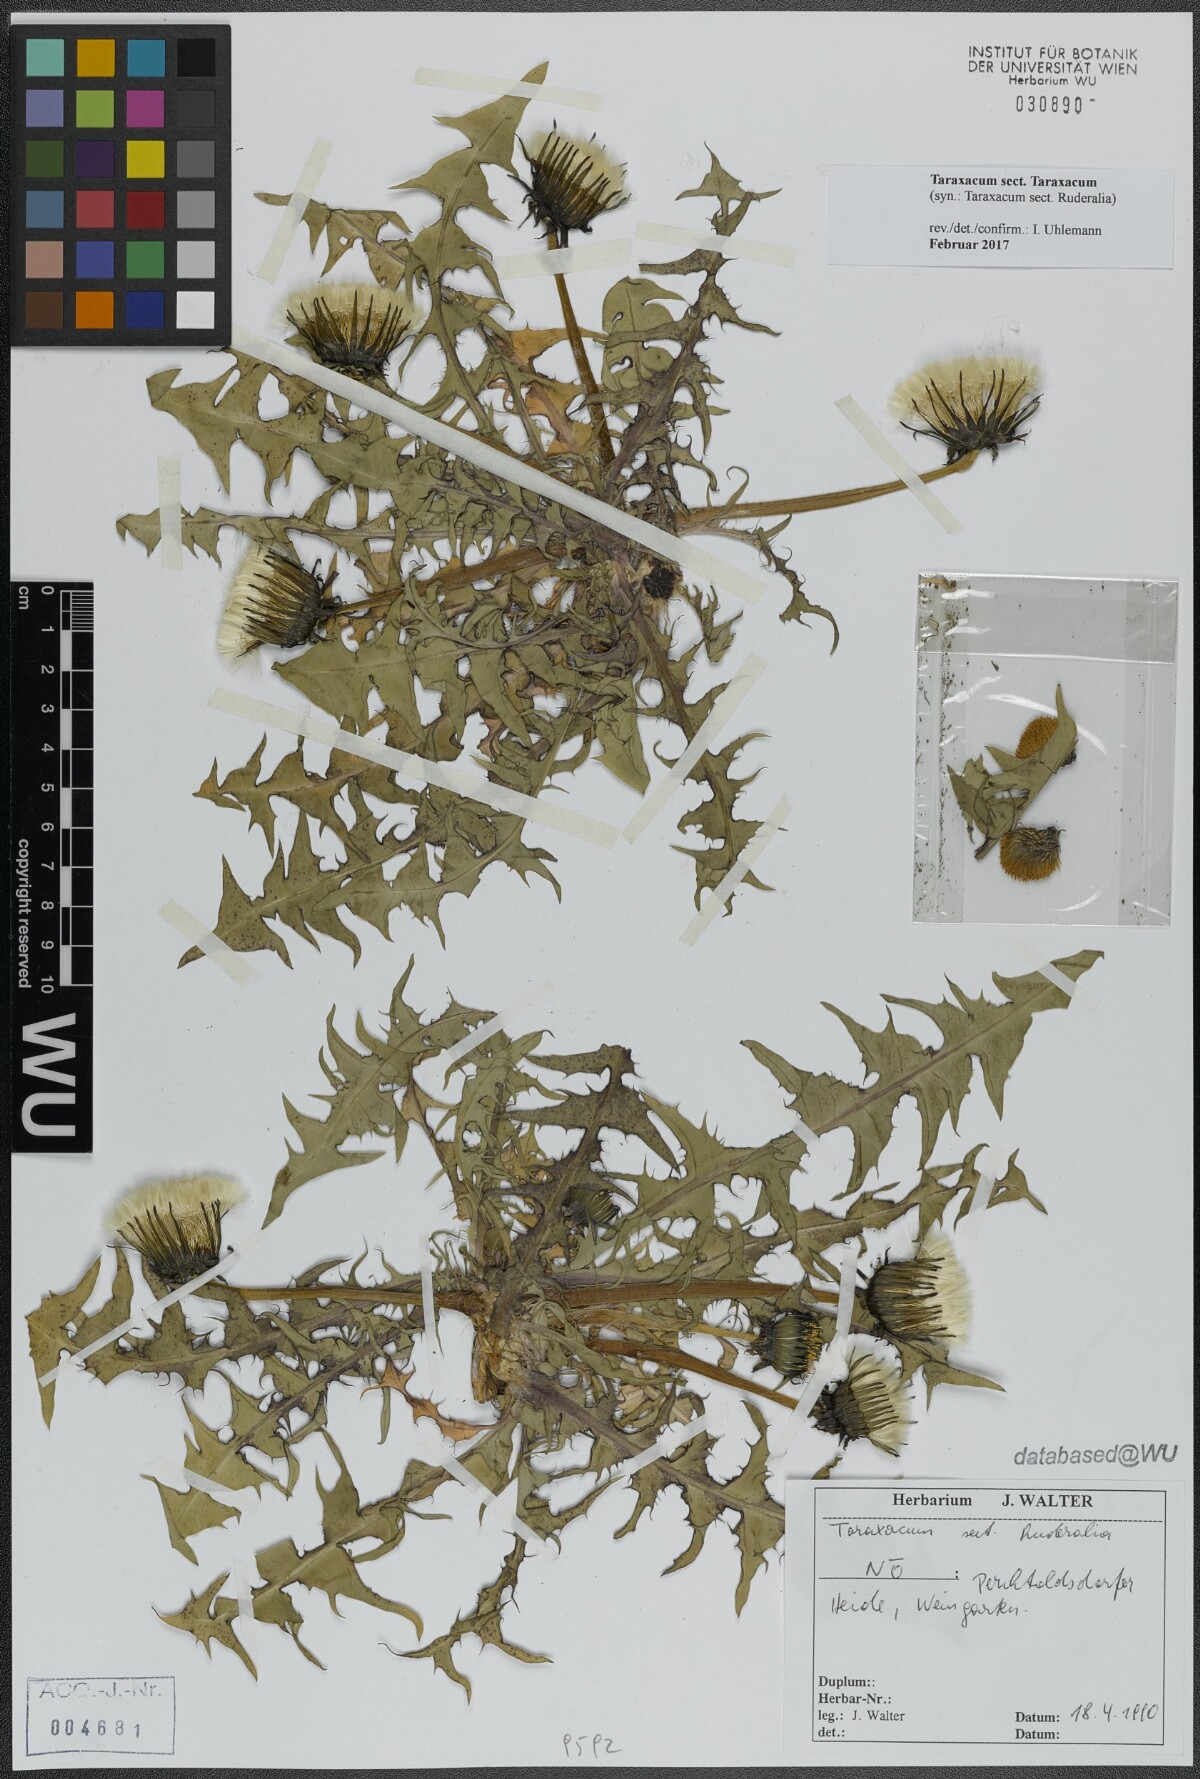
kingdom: Plantae
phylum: Tracheophyta
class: Magnoliopsida
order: Asterales
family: Asteraceae
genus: Taraxacum
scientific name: Taraxacum
